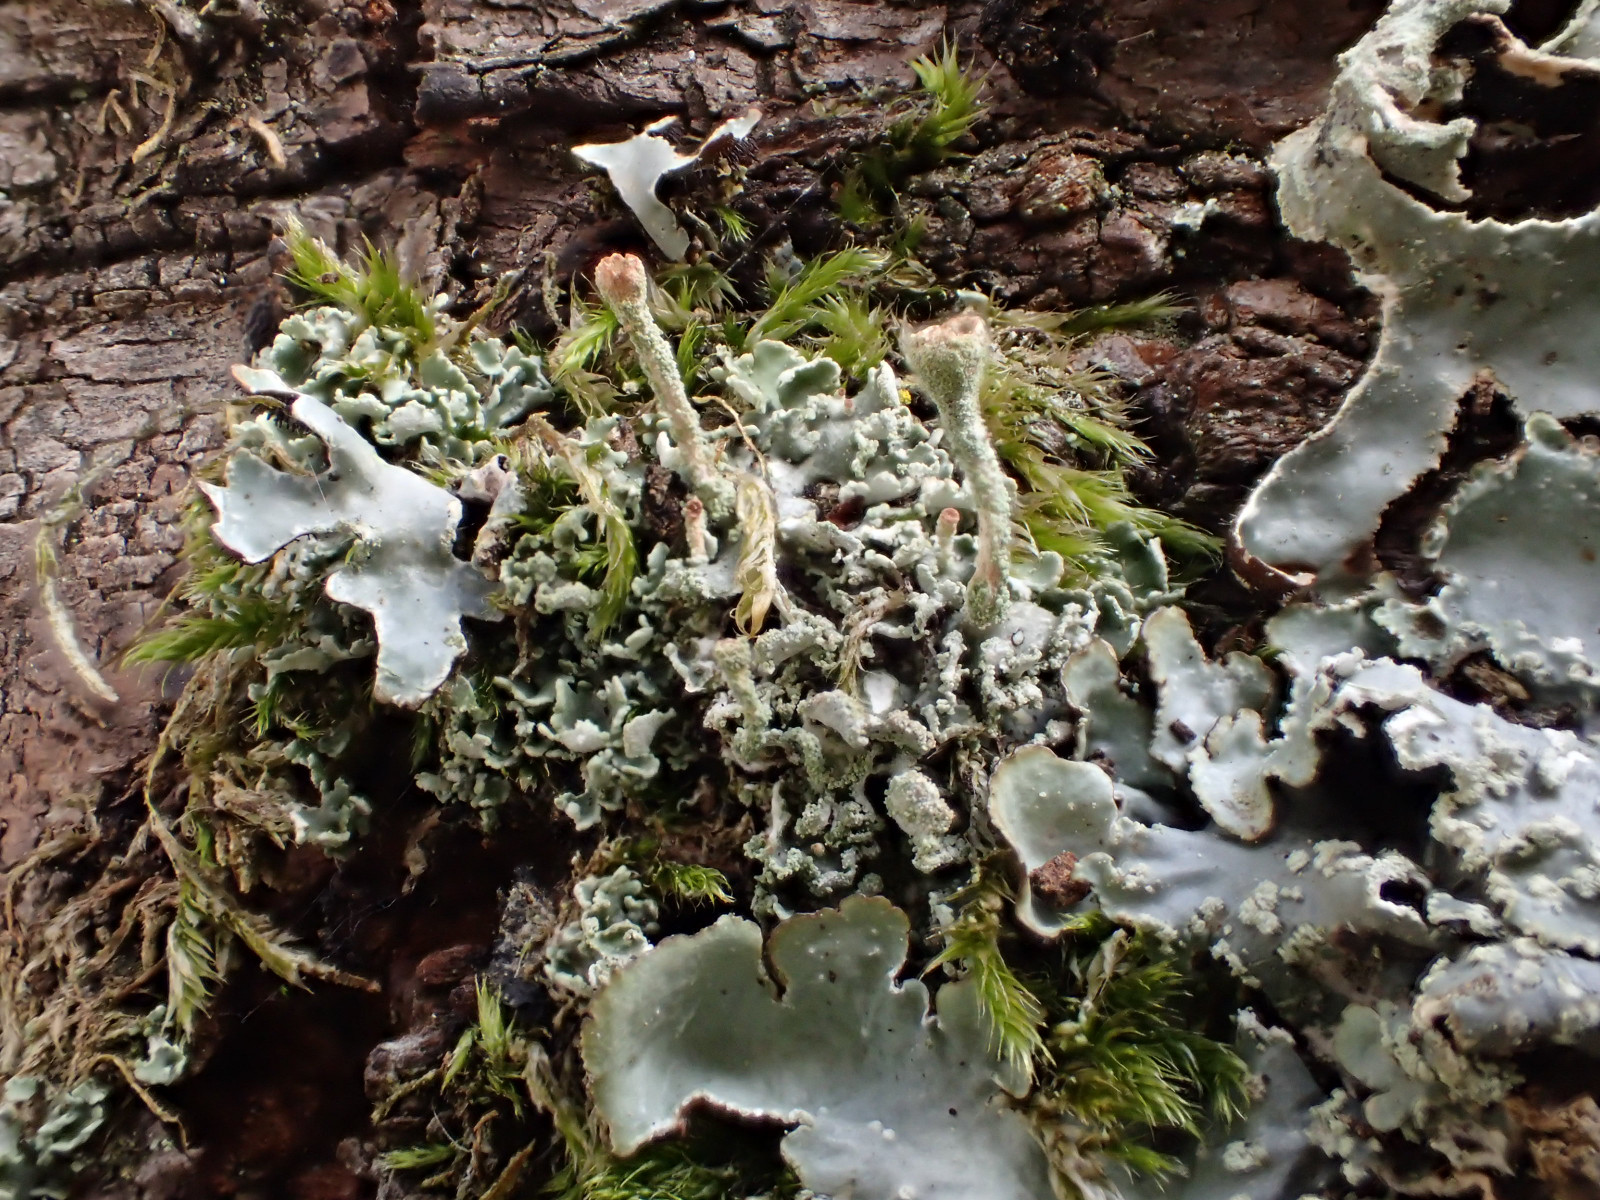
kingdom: Fungi
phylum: Ascomycota
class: Lecanoromycetes
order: Lecanorales
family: Cladoniaceae
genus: Cladonia
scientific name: Cladonia
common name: brungrøn bægerlav
